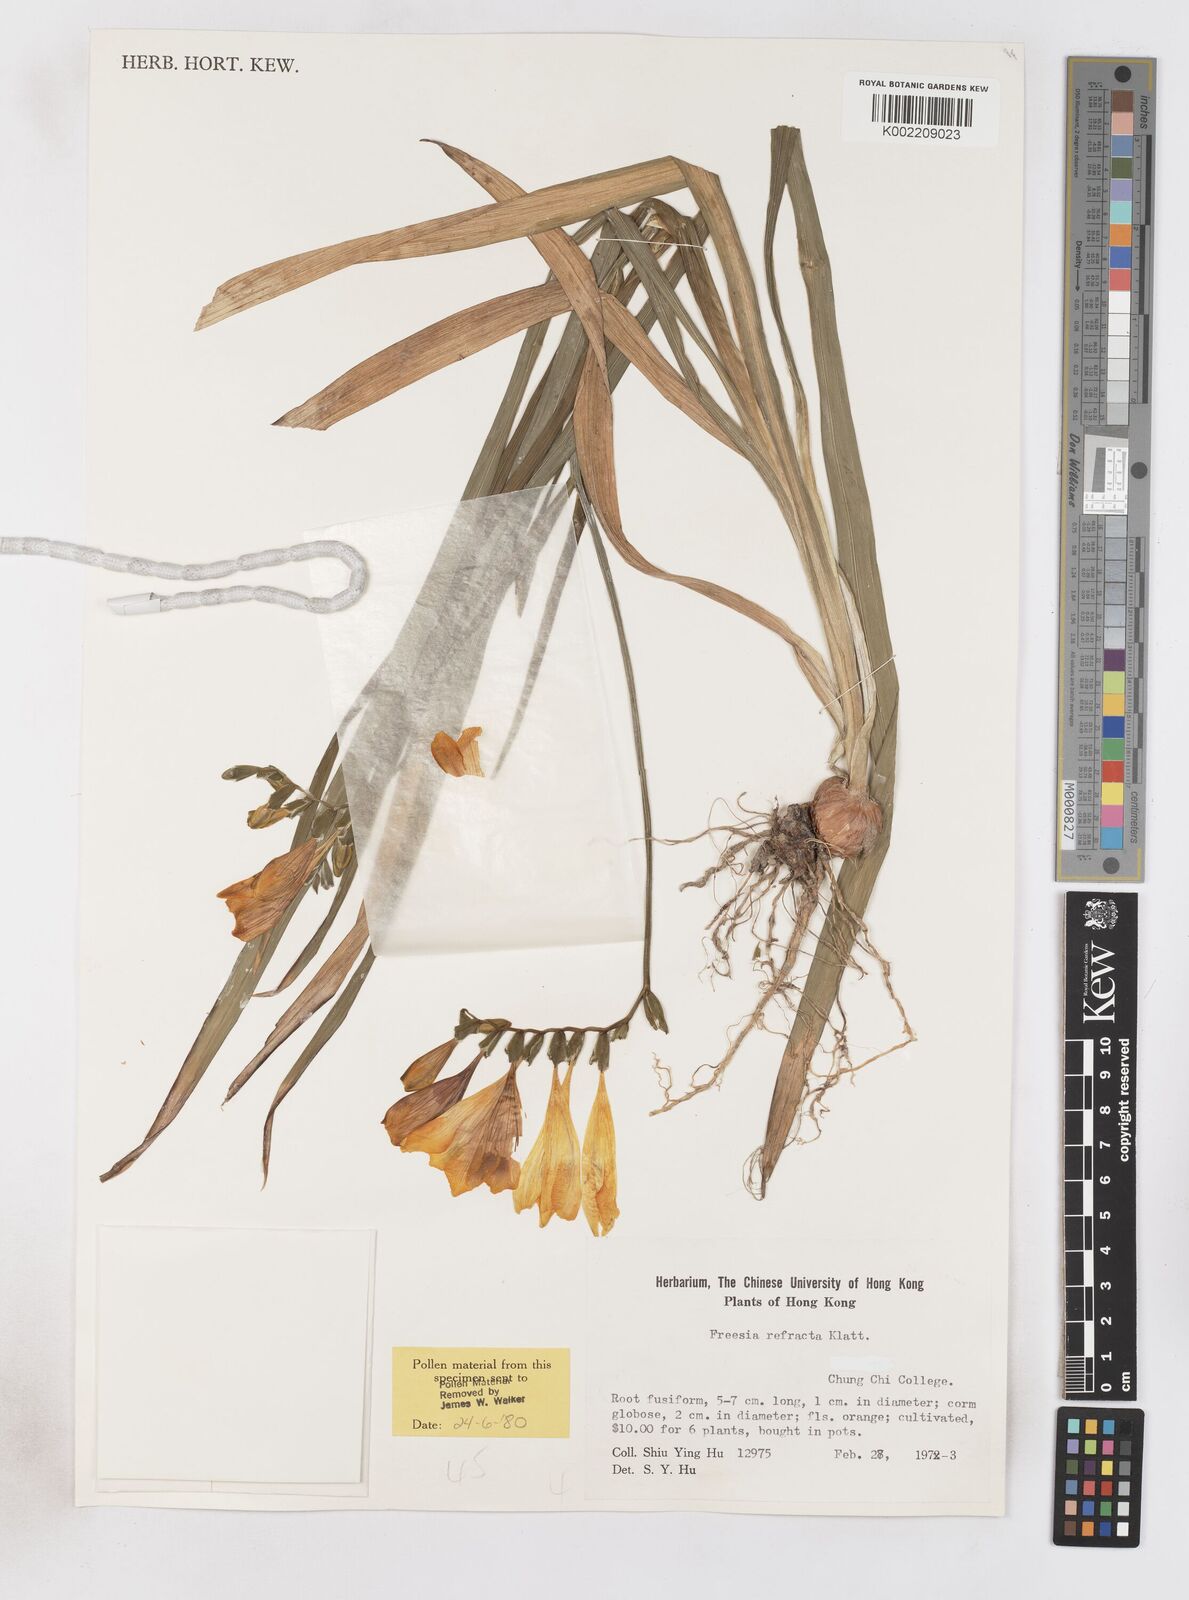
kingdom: Plantae
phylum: Tracheophyta
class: Liliopsida
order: Asparagales
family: Iridaceae
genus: Freesia
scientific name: Freesia refracta
